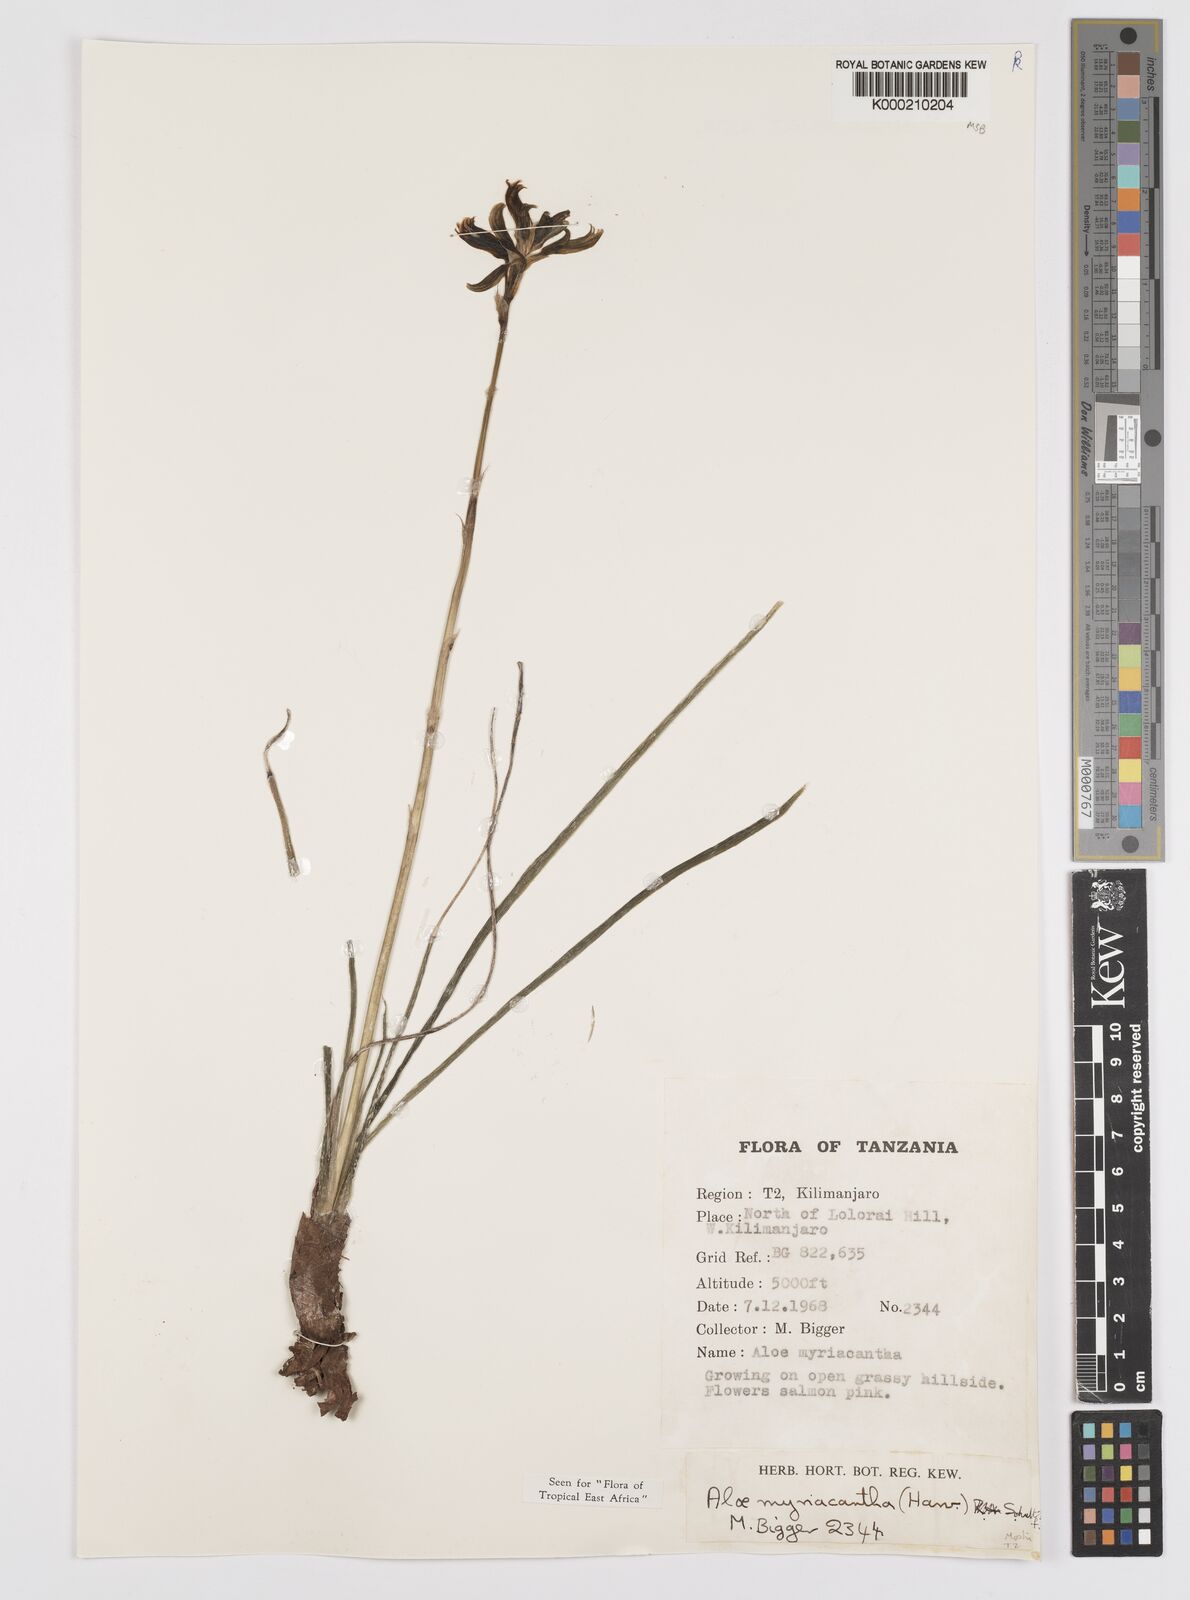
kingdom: Plantae
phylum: Tracheophyta
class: Liliopsida
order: Asparagales
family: Asphodelaceae
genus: Aloe
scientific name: Aloe
